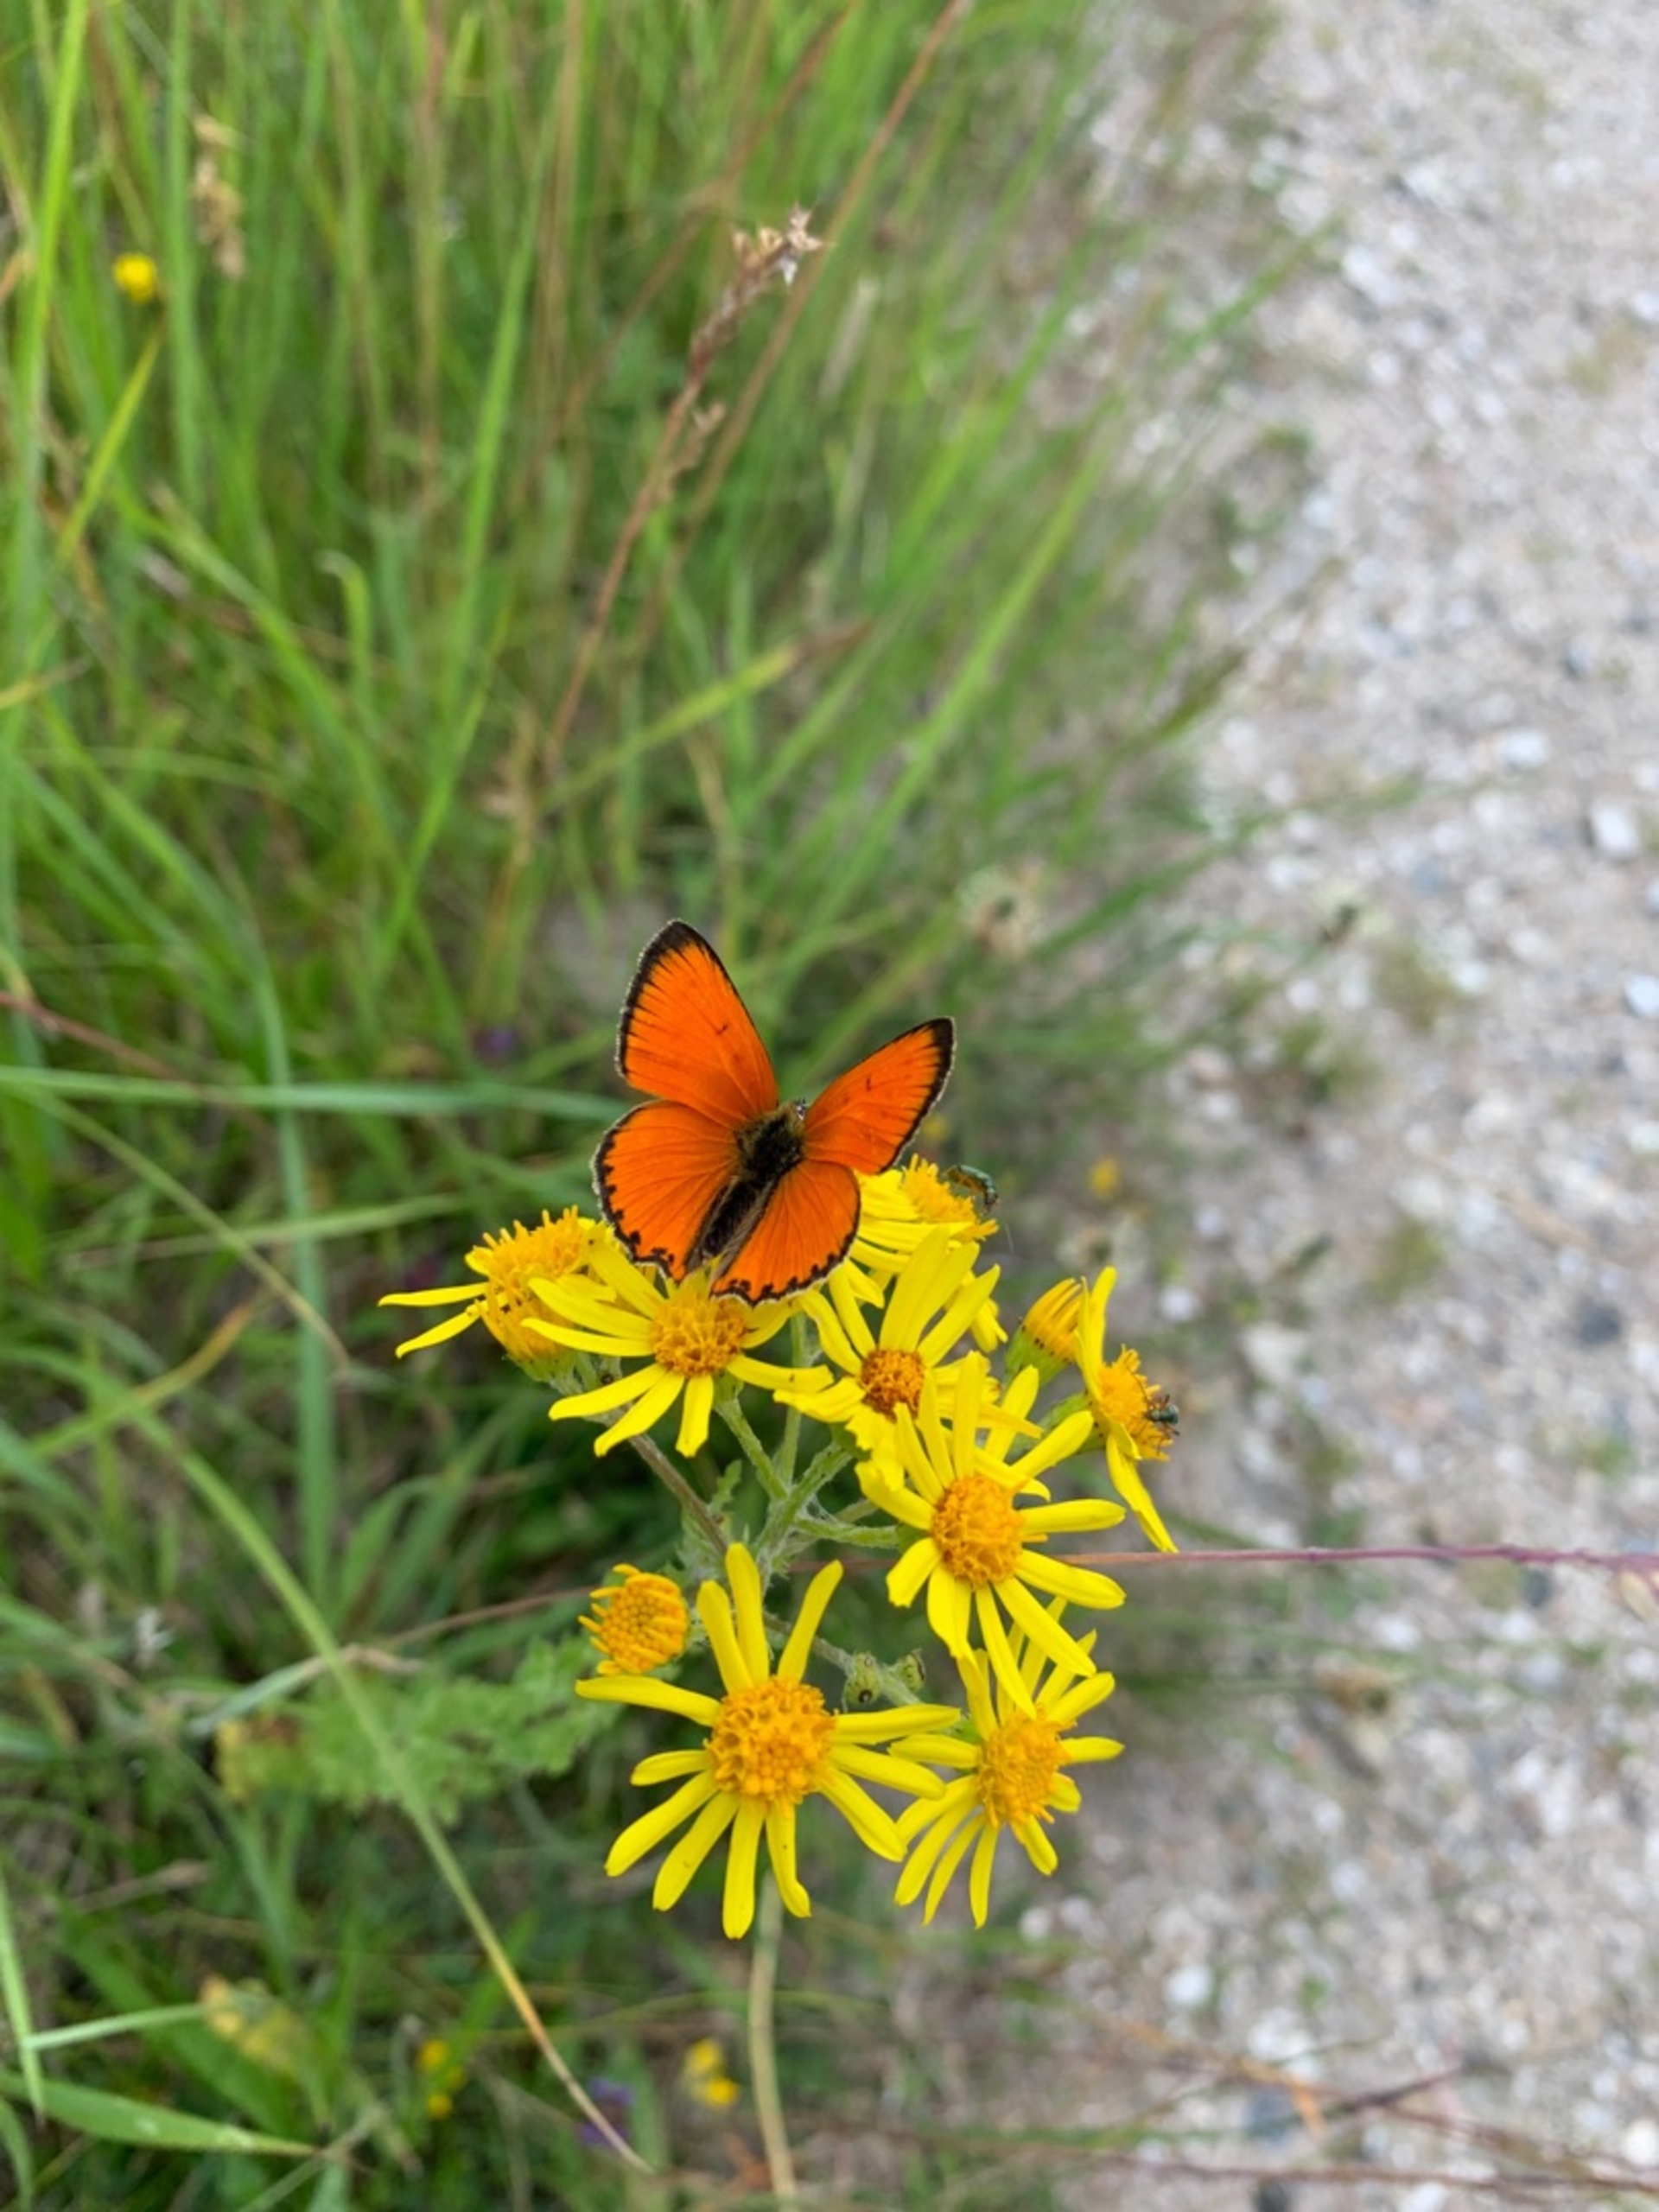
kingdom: Animalia
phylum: Arthropoda
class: Insecta
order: Lepidoptera
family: Lycaenidae
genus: Lycaena
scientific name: Lycaena virgaureae
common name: Dukatsommerfugl
